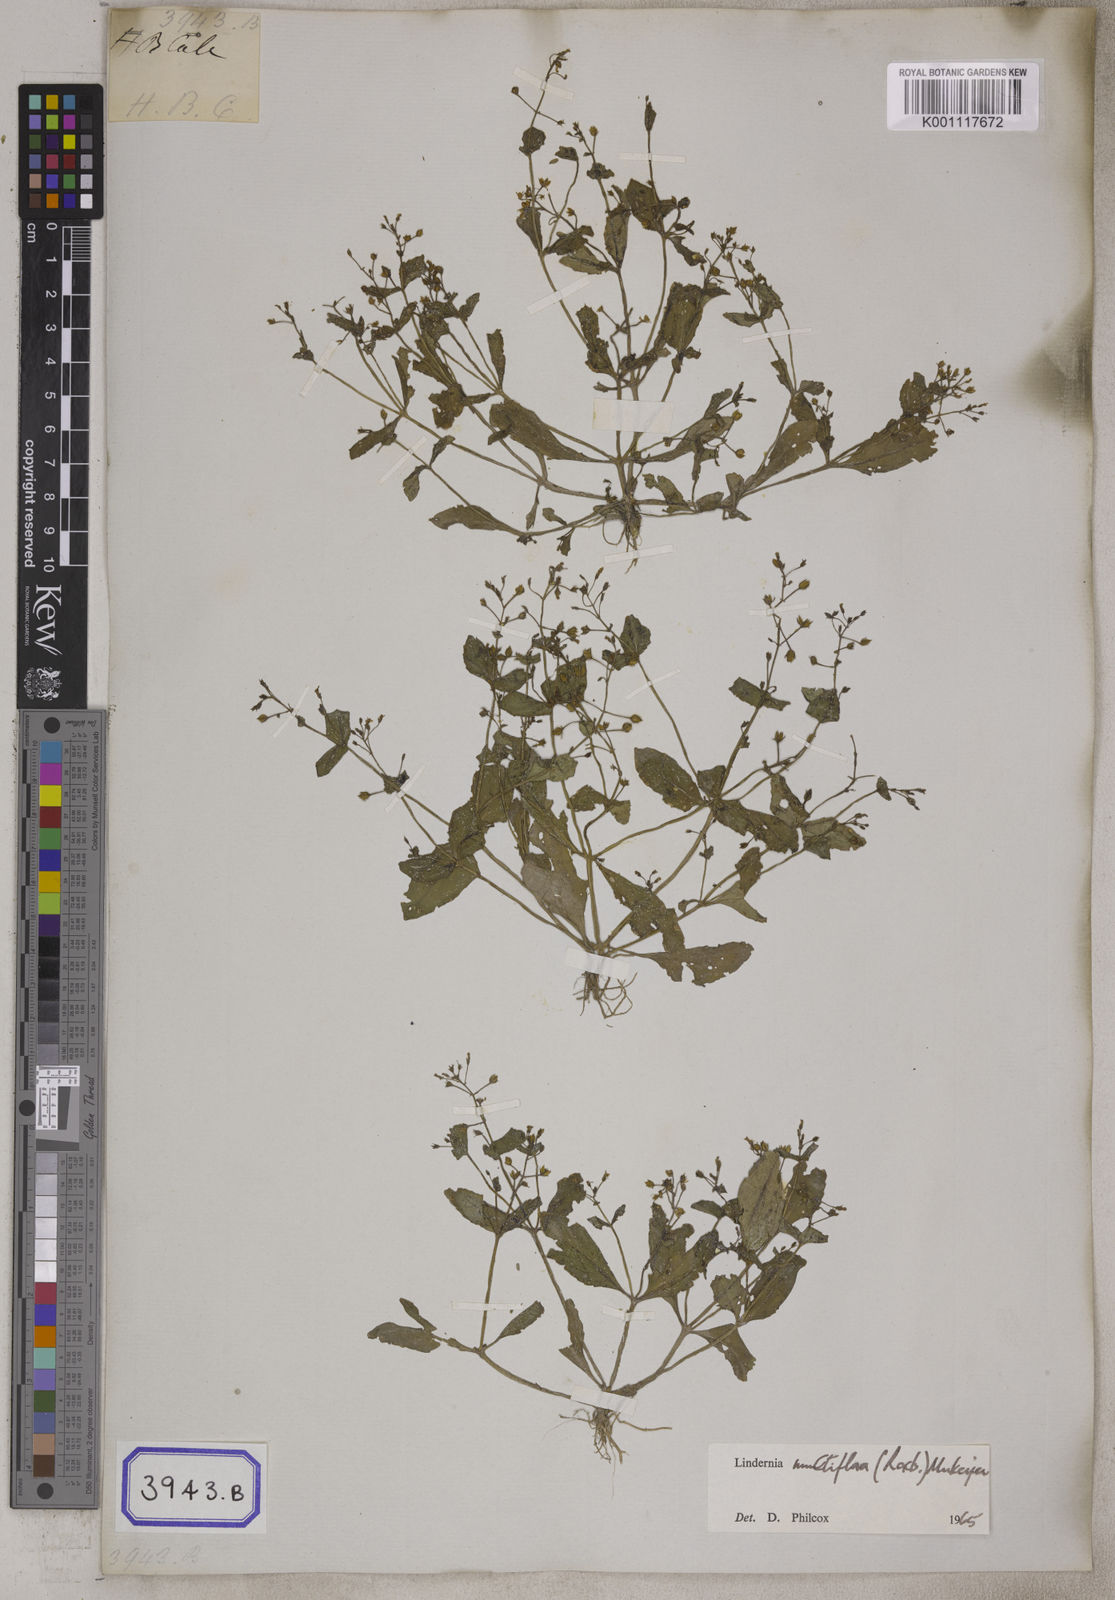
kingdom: Plantae
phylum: Tracheophyta
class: Magnoliopsida
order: Lamiales
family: Linderniaceae
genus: Vandellia
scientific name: Vandellia multiflora
